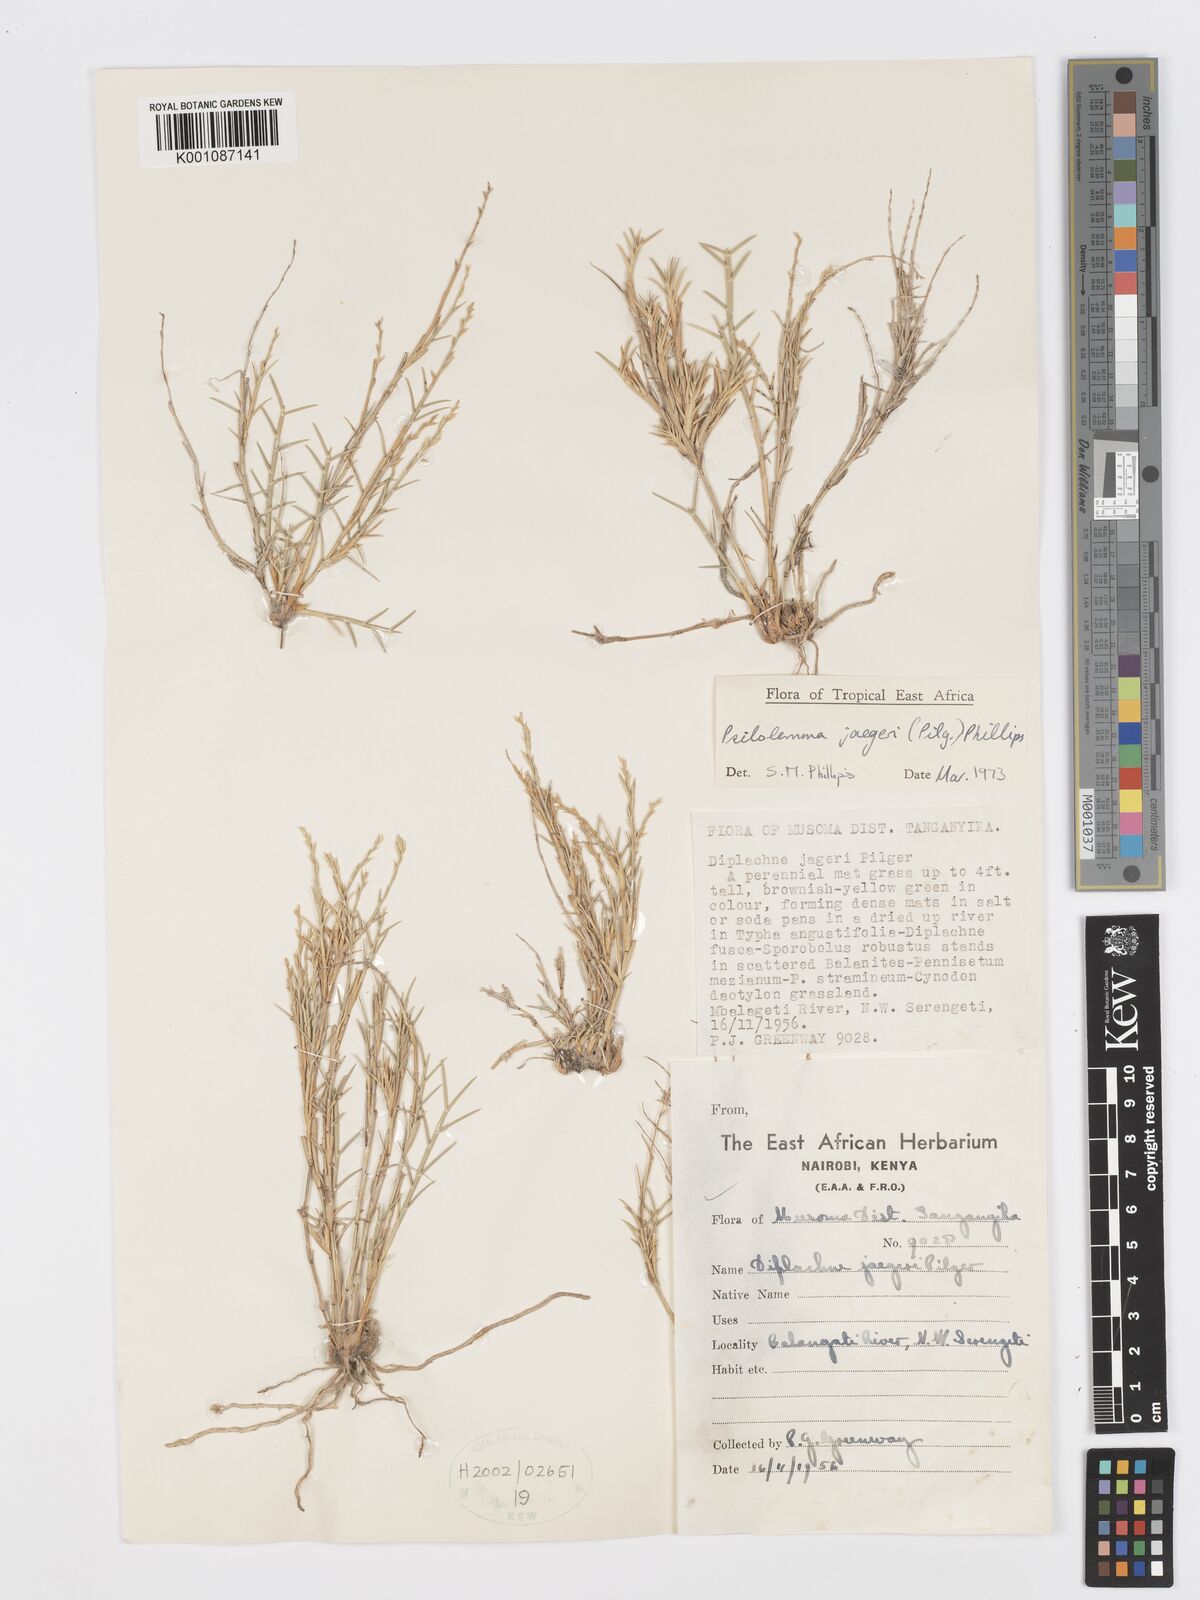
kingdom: Plantae
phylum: Tracheophyta
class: Liliopsida
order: Poales
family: Poaceae
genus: Psilolemma
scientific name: Psilolemma jaegeri
